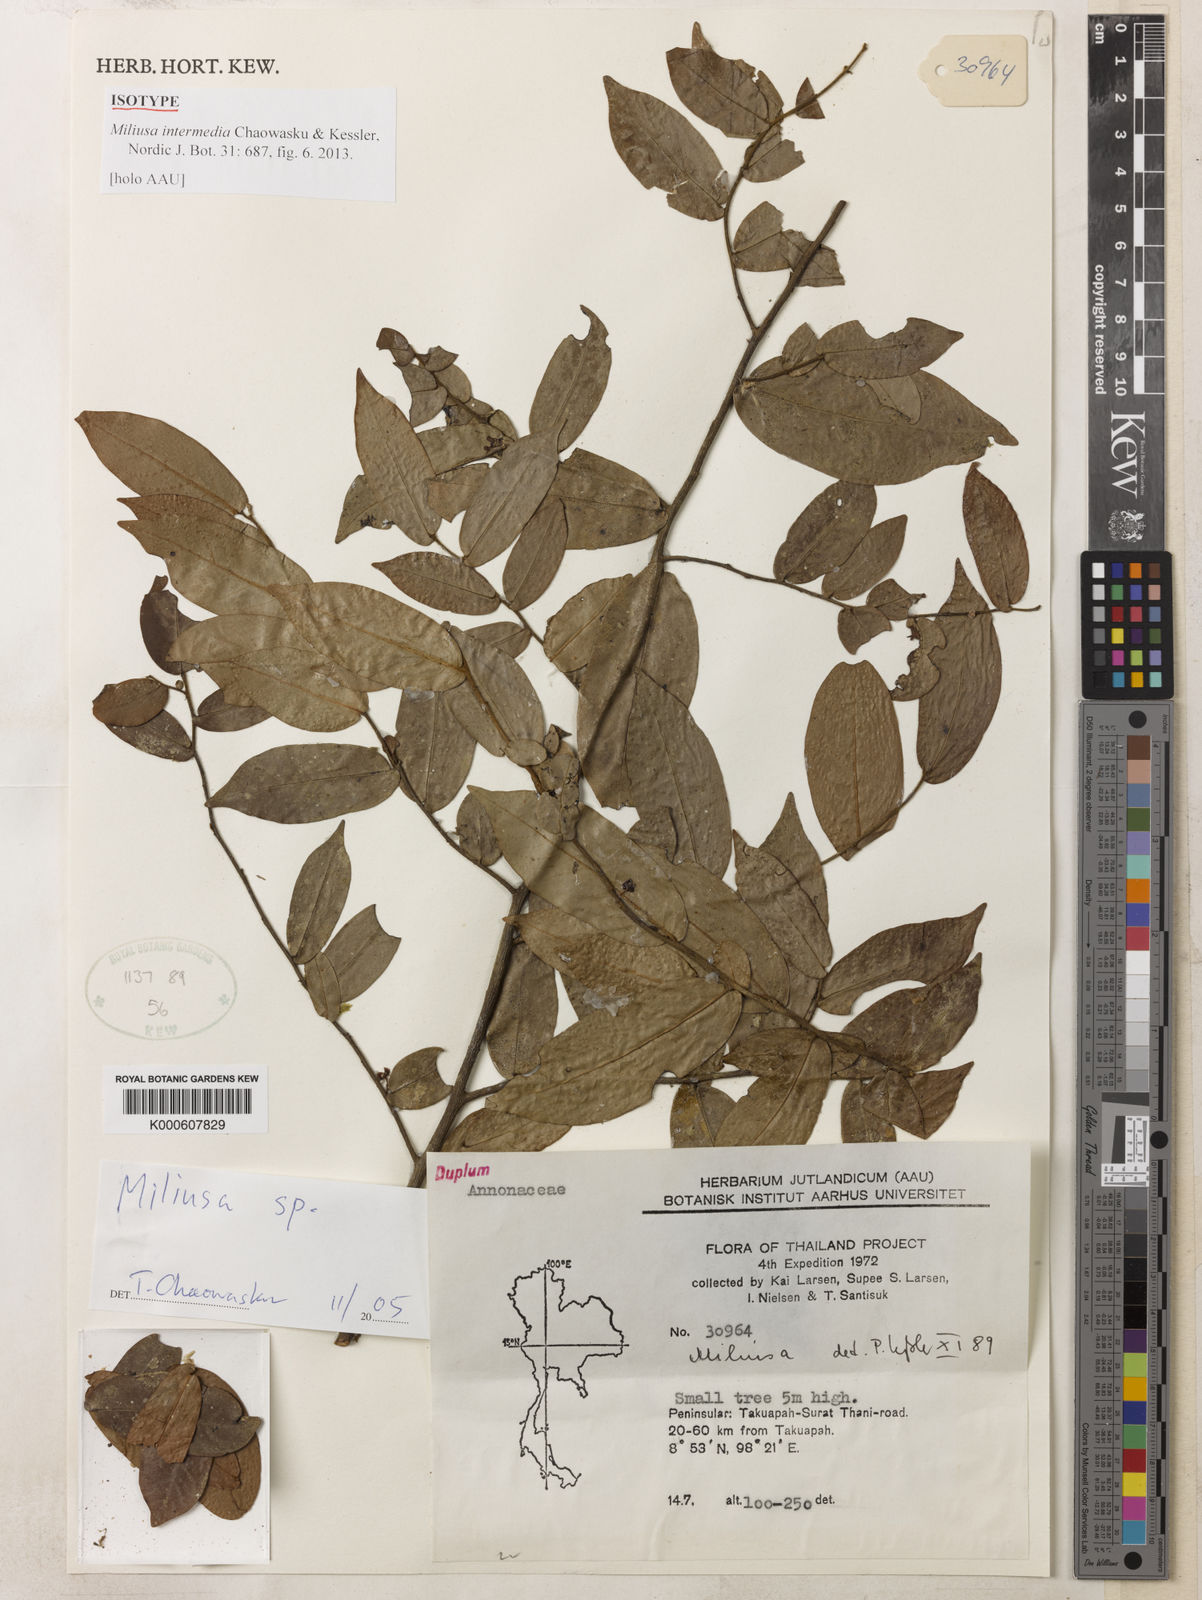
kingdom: Plantae
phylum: Tracheophyta
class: Magnoliopsida
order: Magnoliales
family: Annonaceae
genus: Miliusa
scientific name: Miliusa intermedia
